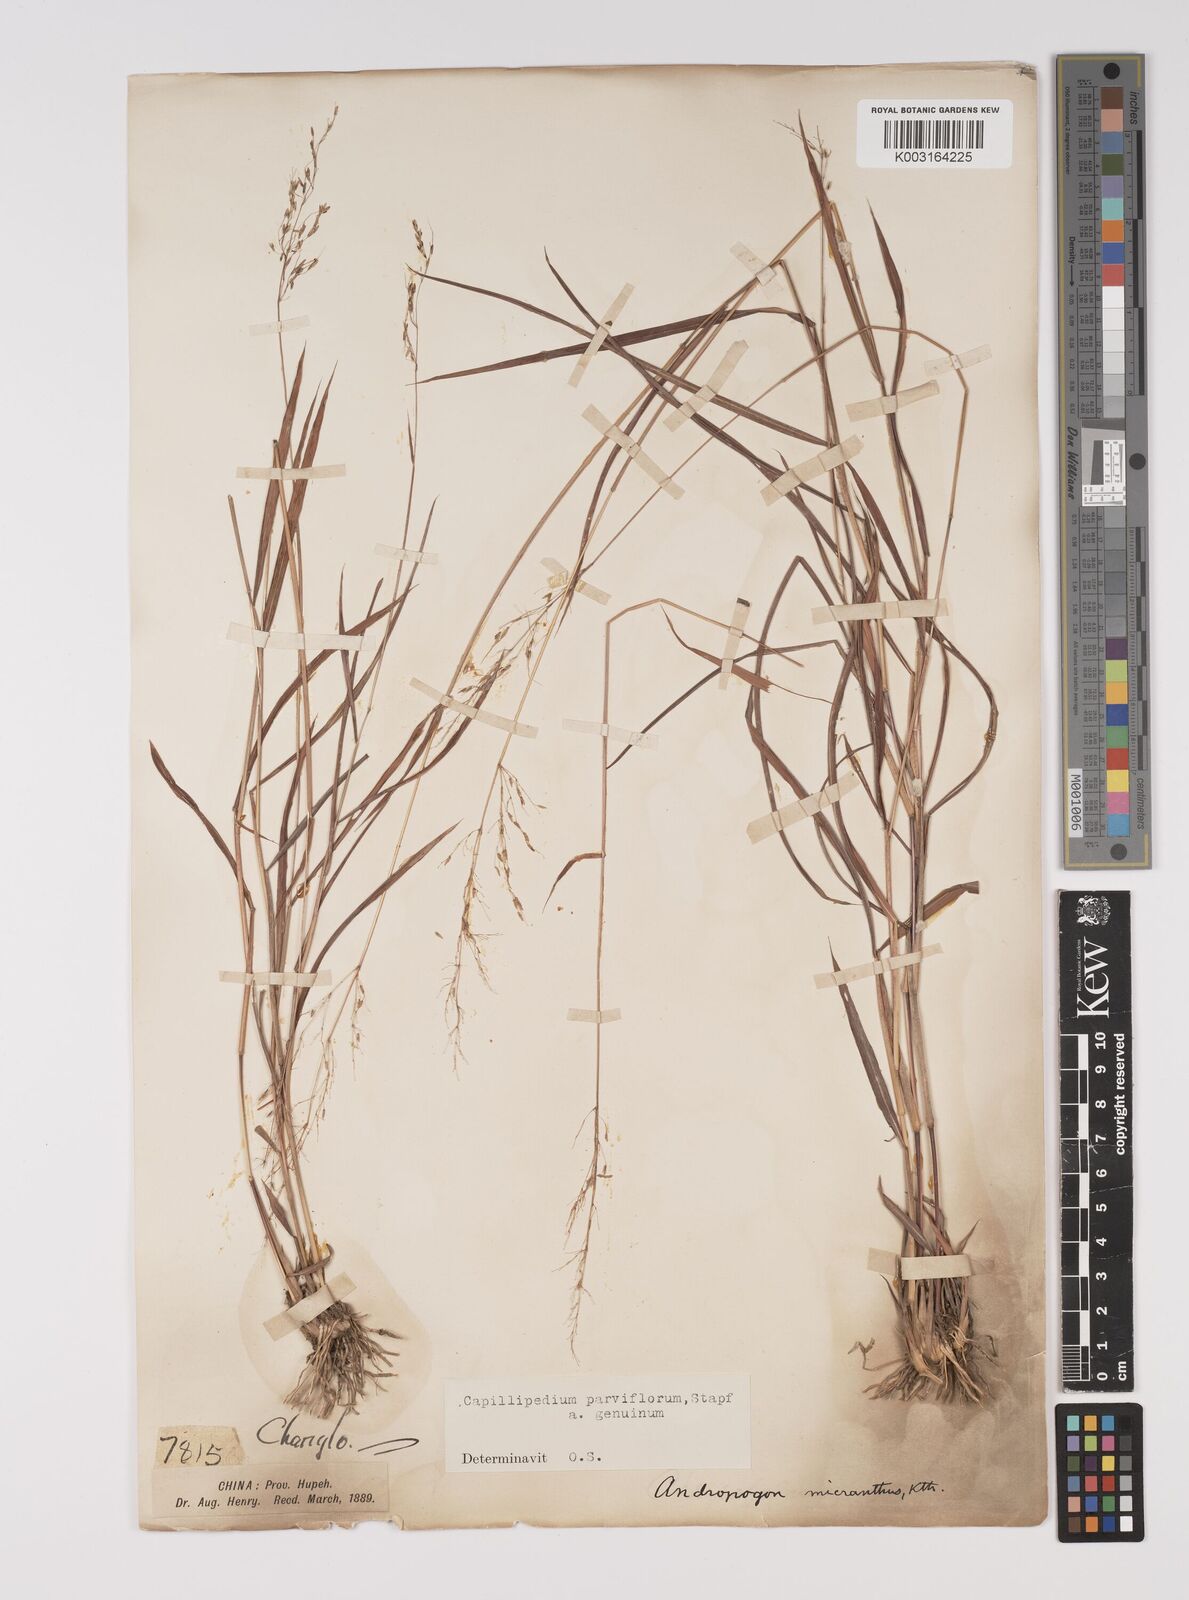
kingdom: Plantae
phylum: Tracheophyta
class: Liliopsida
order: Poales
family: Poaceae
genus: Capillipedium
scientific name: Capillipedium parviflorum
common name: Golden-beard
